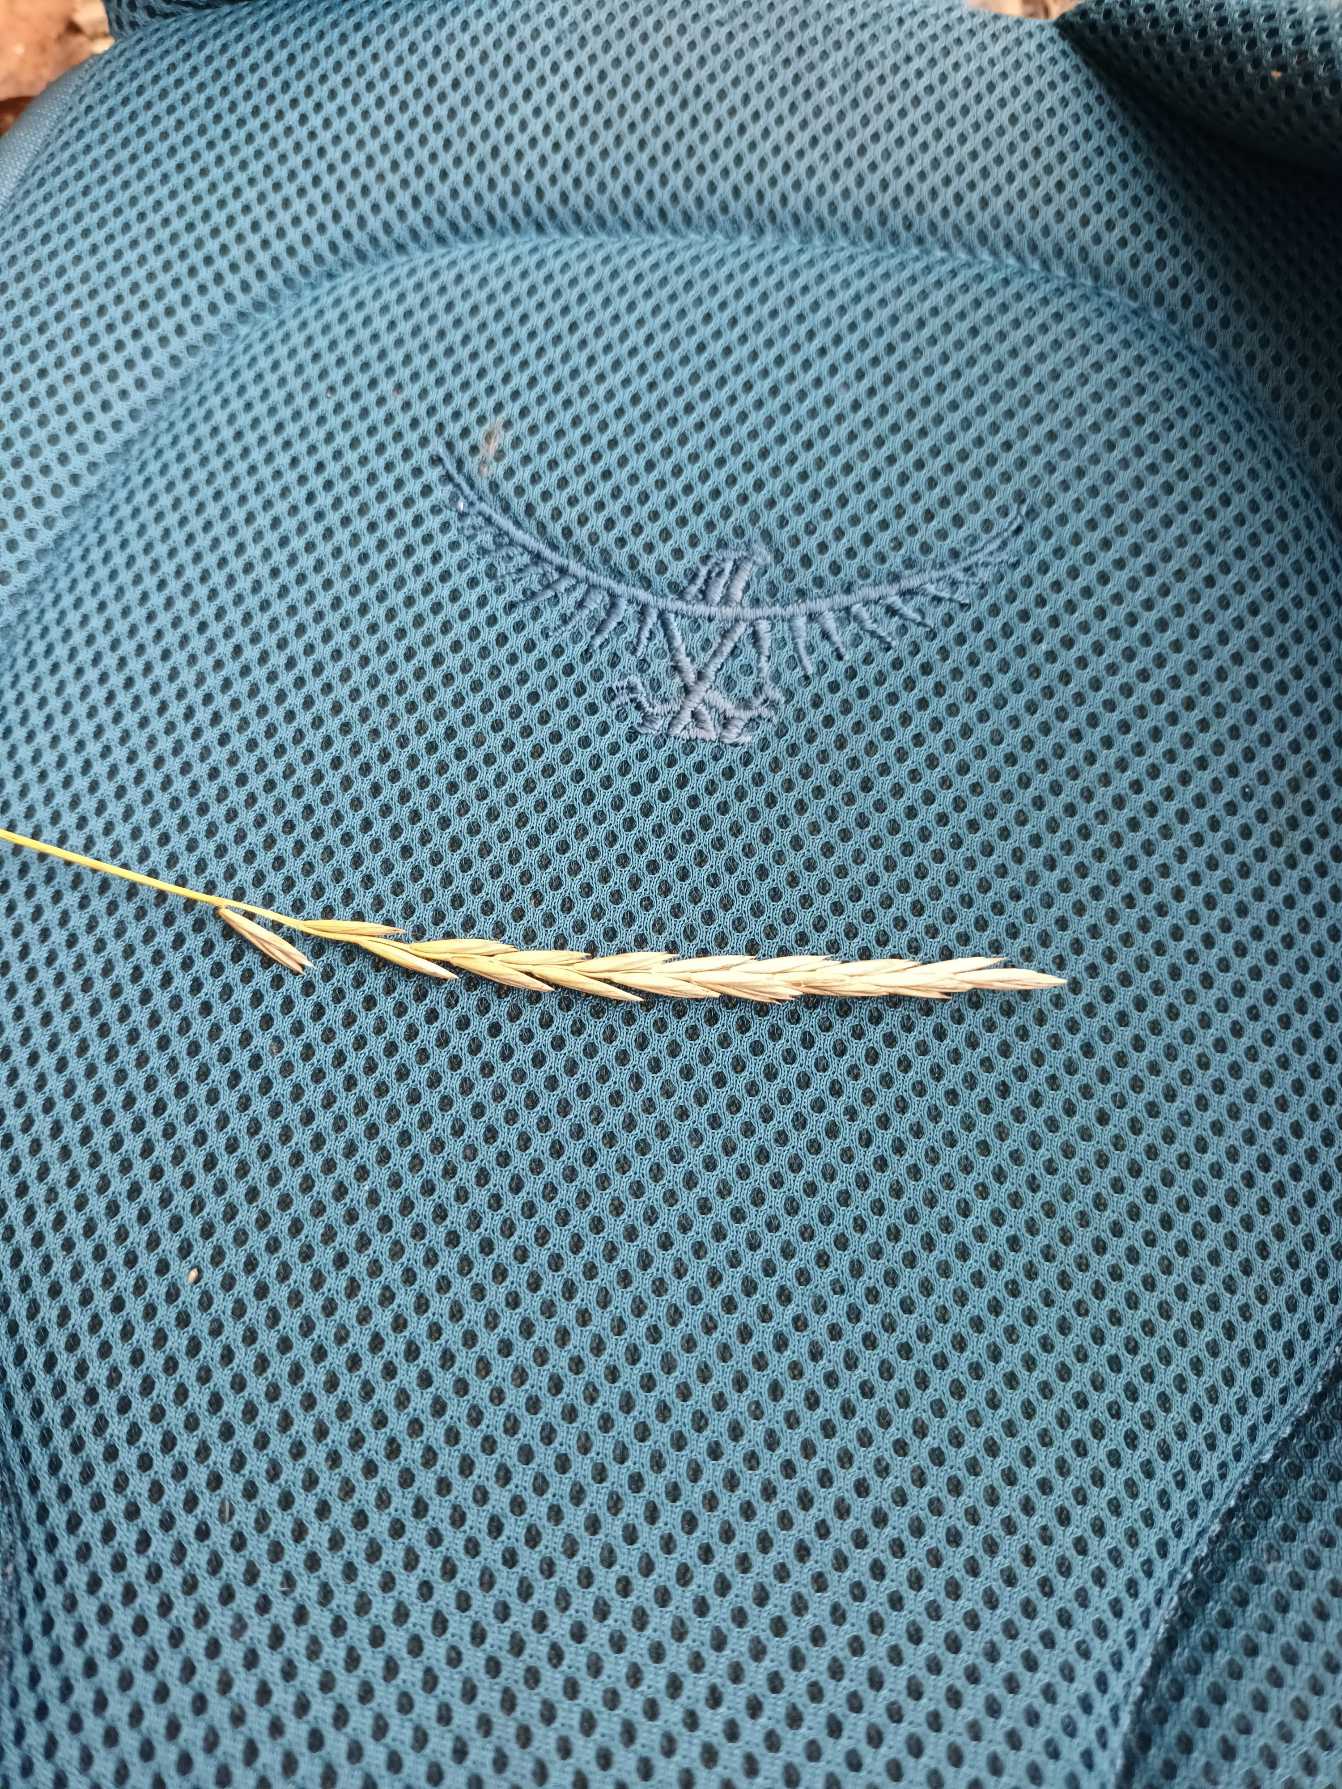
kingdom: Plantae
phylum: Tracheophyta
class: Liliopsida
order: Poales
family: Poaceae
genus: Elymus
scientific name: Elymus repens
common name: Almindelig kvik
